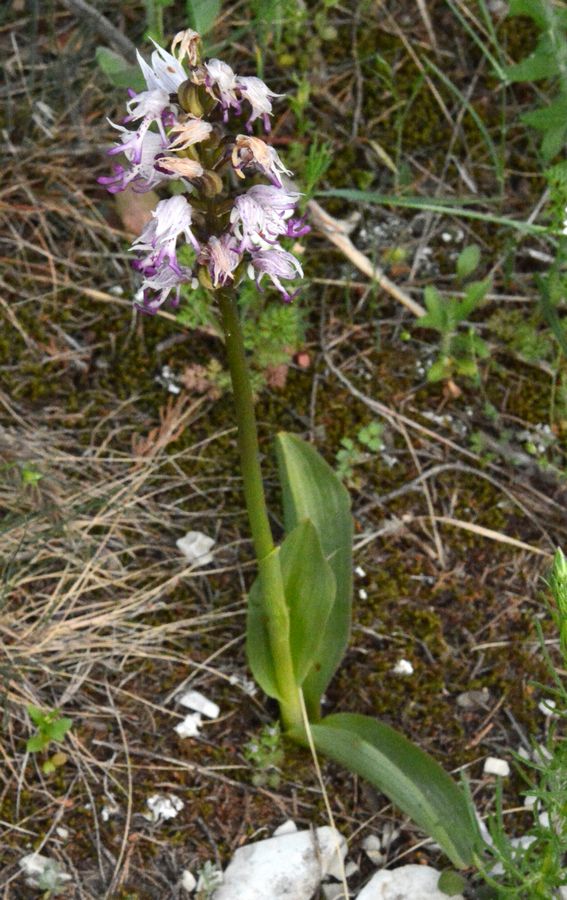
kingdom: Plantae
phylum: Tracheophyta
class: Liliopsida
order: Asparagales
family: Orchidaceae
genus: Orchis
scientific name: Orchis simia
